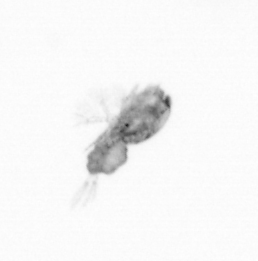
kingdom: Animalia
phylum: Arthropoda
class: Copepoda
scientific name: Copepoda
